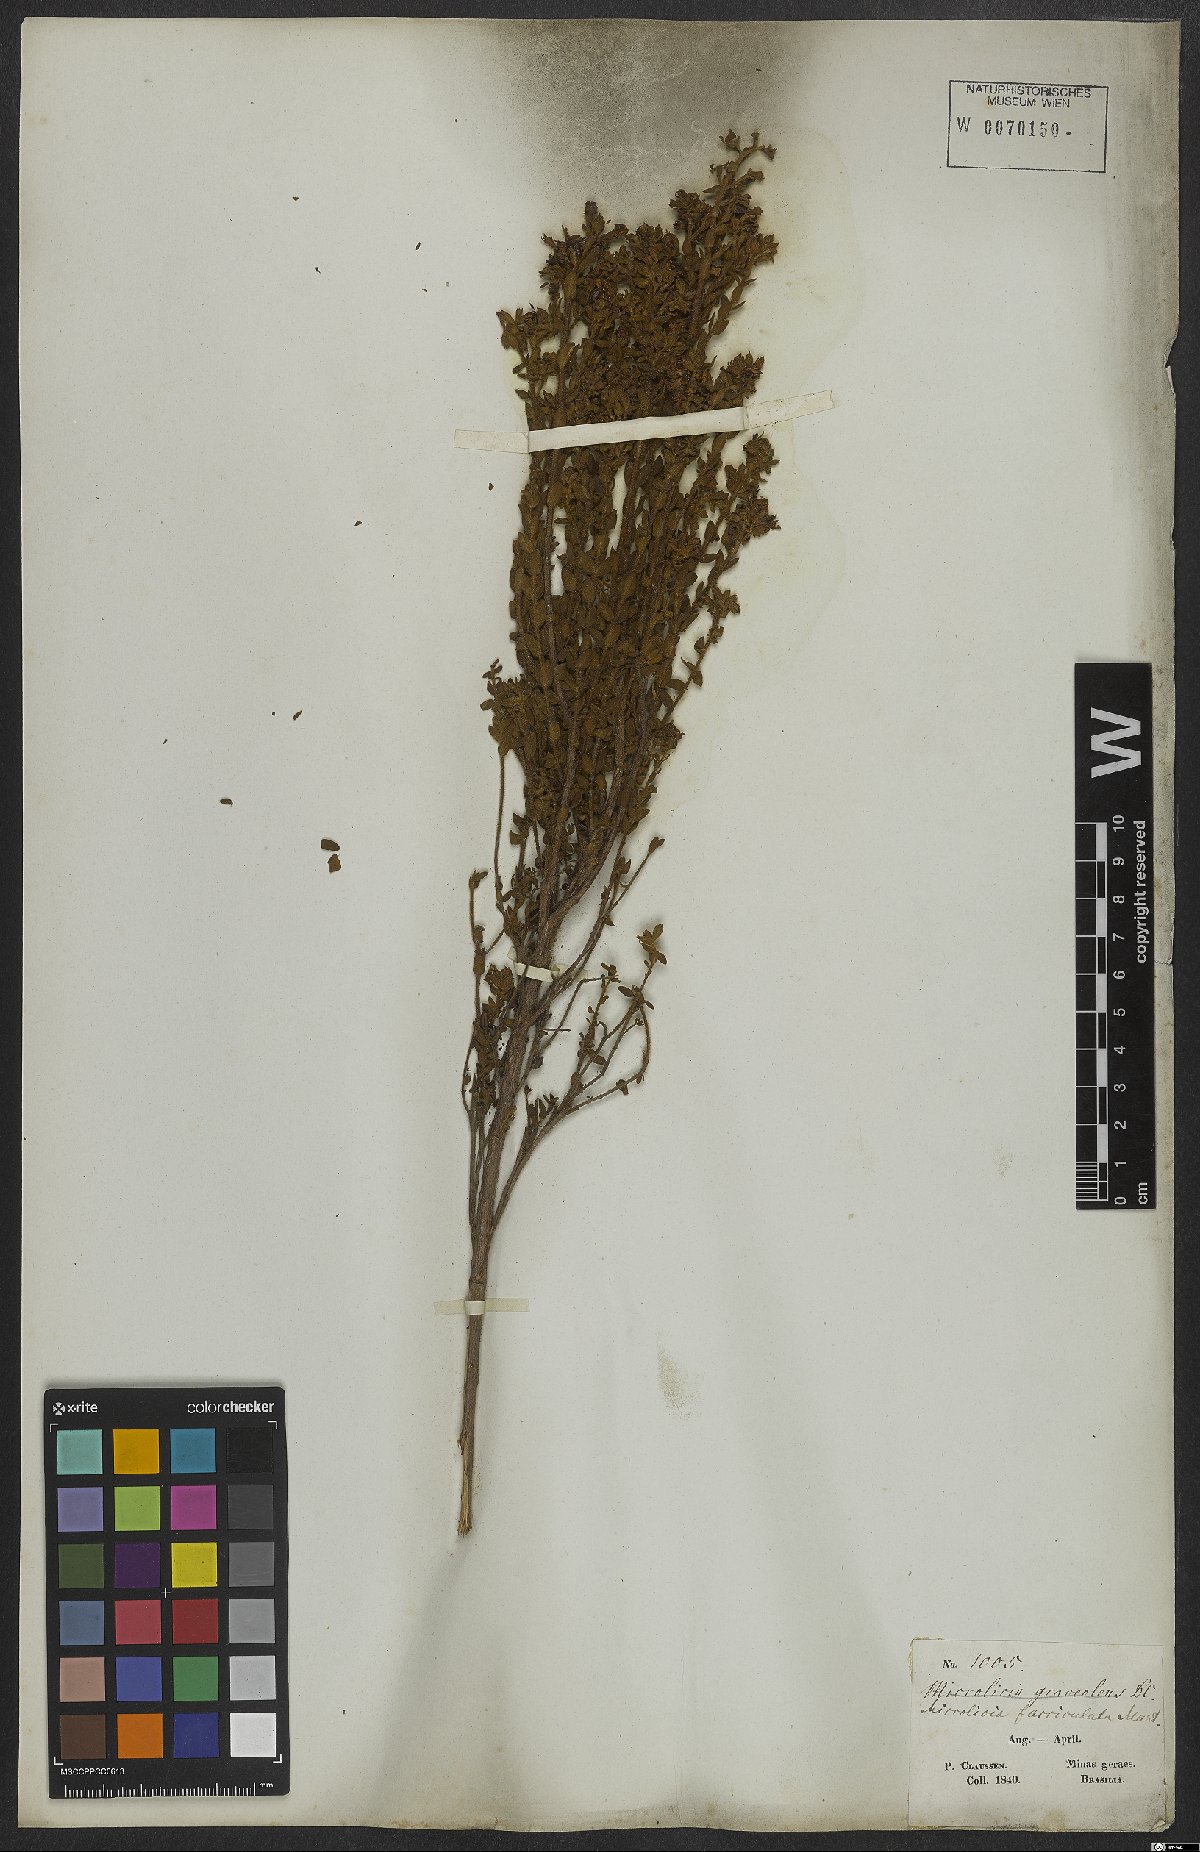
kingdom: Plantae
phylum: Tracheophyta
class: Magnoliopsida
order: Myrtales
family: Melastomataceae
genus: Microlicia
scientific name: Microlicia fasciculata
